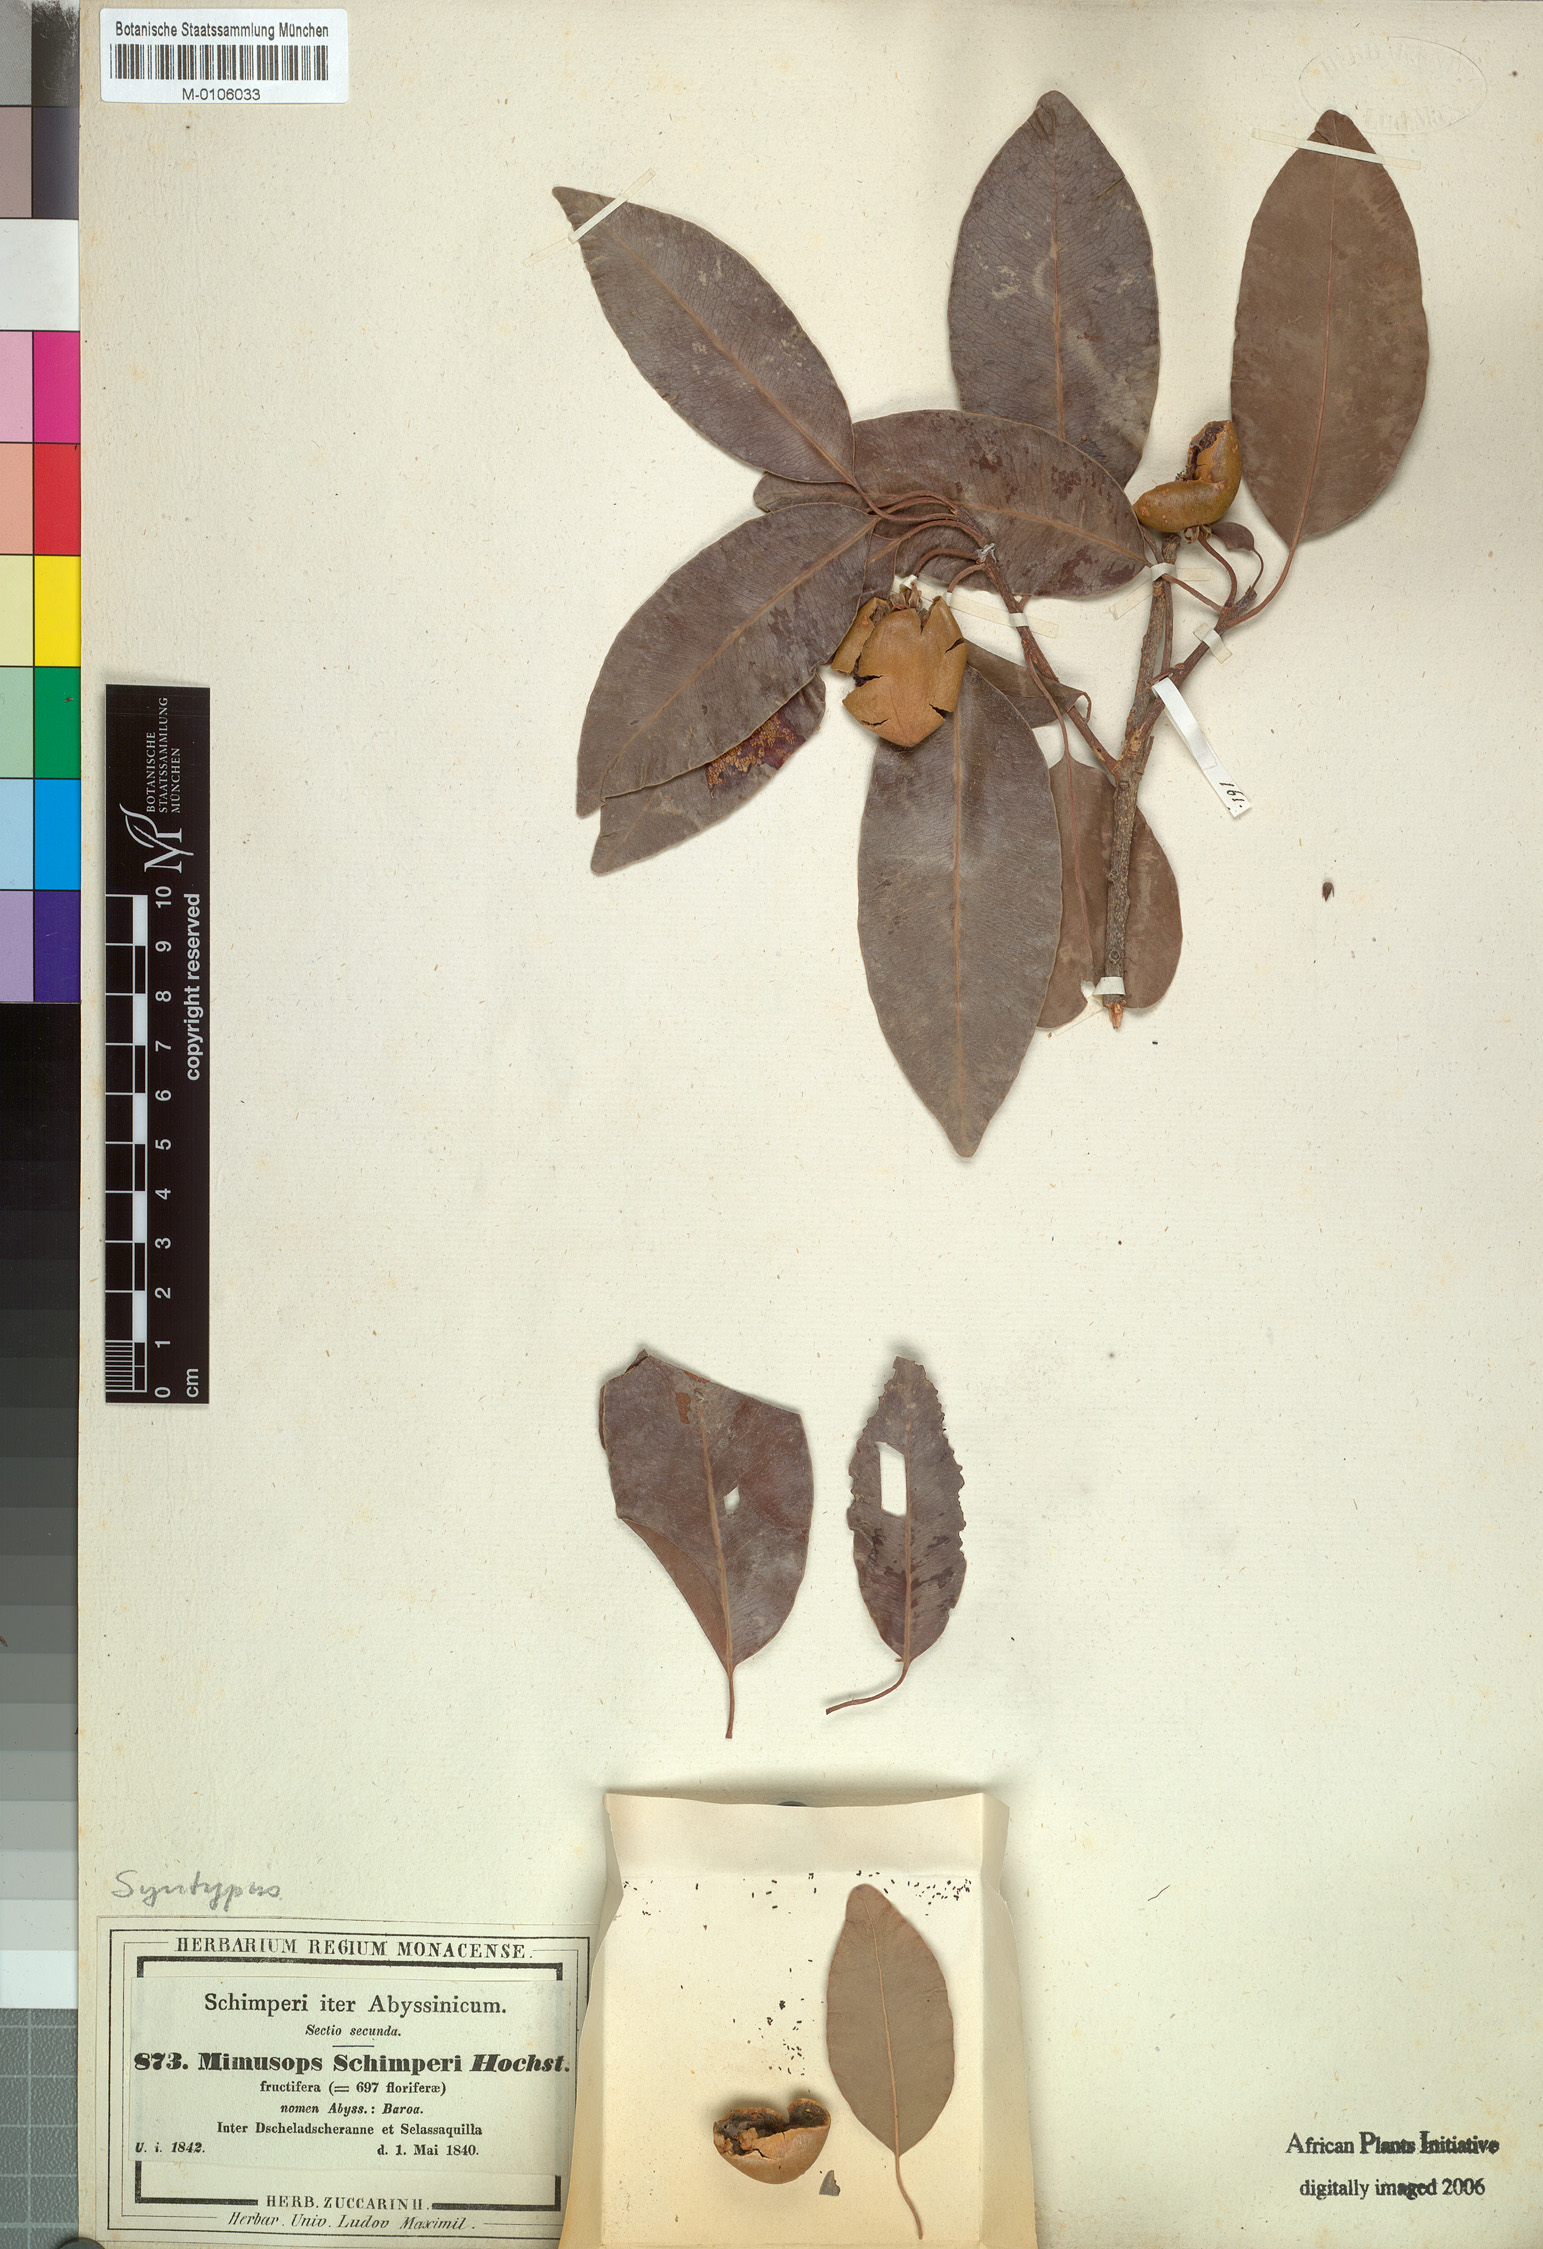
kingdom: Plantae
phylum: Tracheophyta
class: Magnoliopsida
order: Ericales
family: Sapotaceae
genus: Mimusops
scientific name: Mimusops laurifolia
